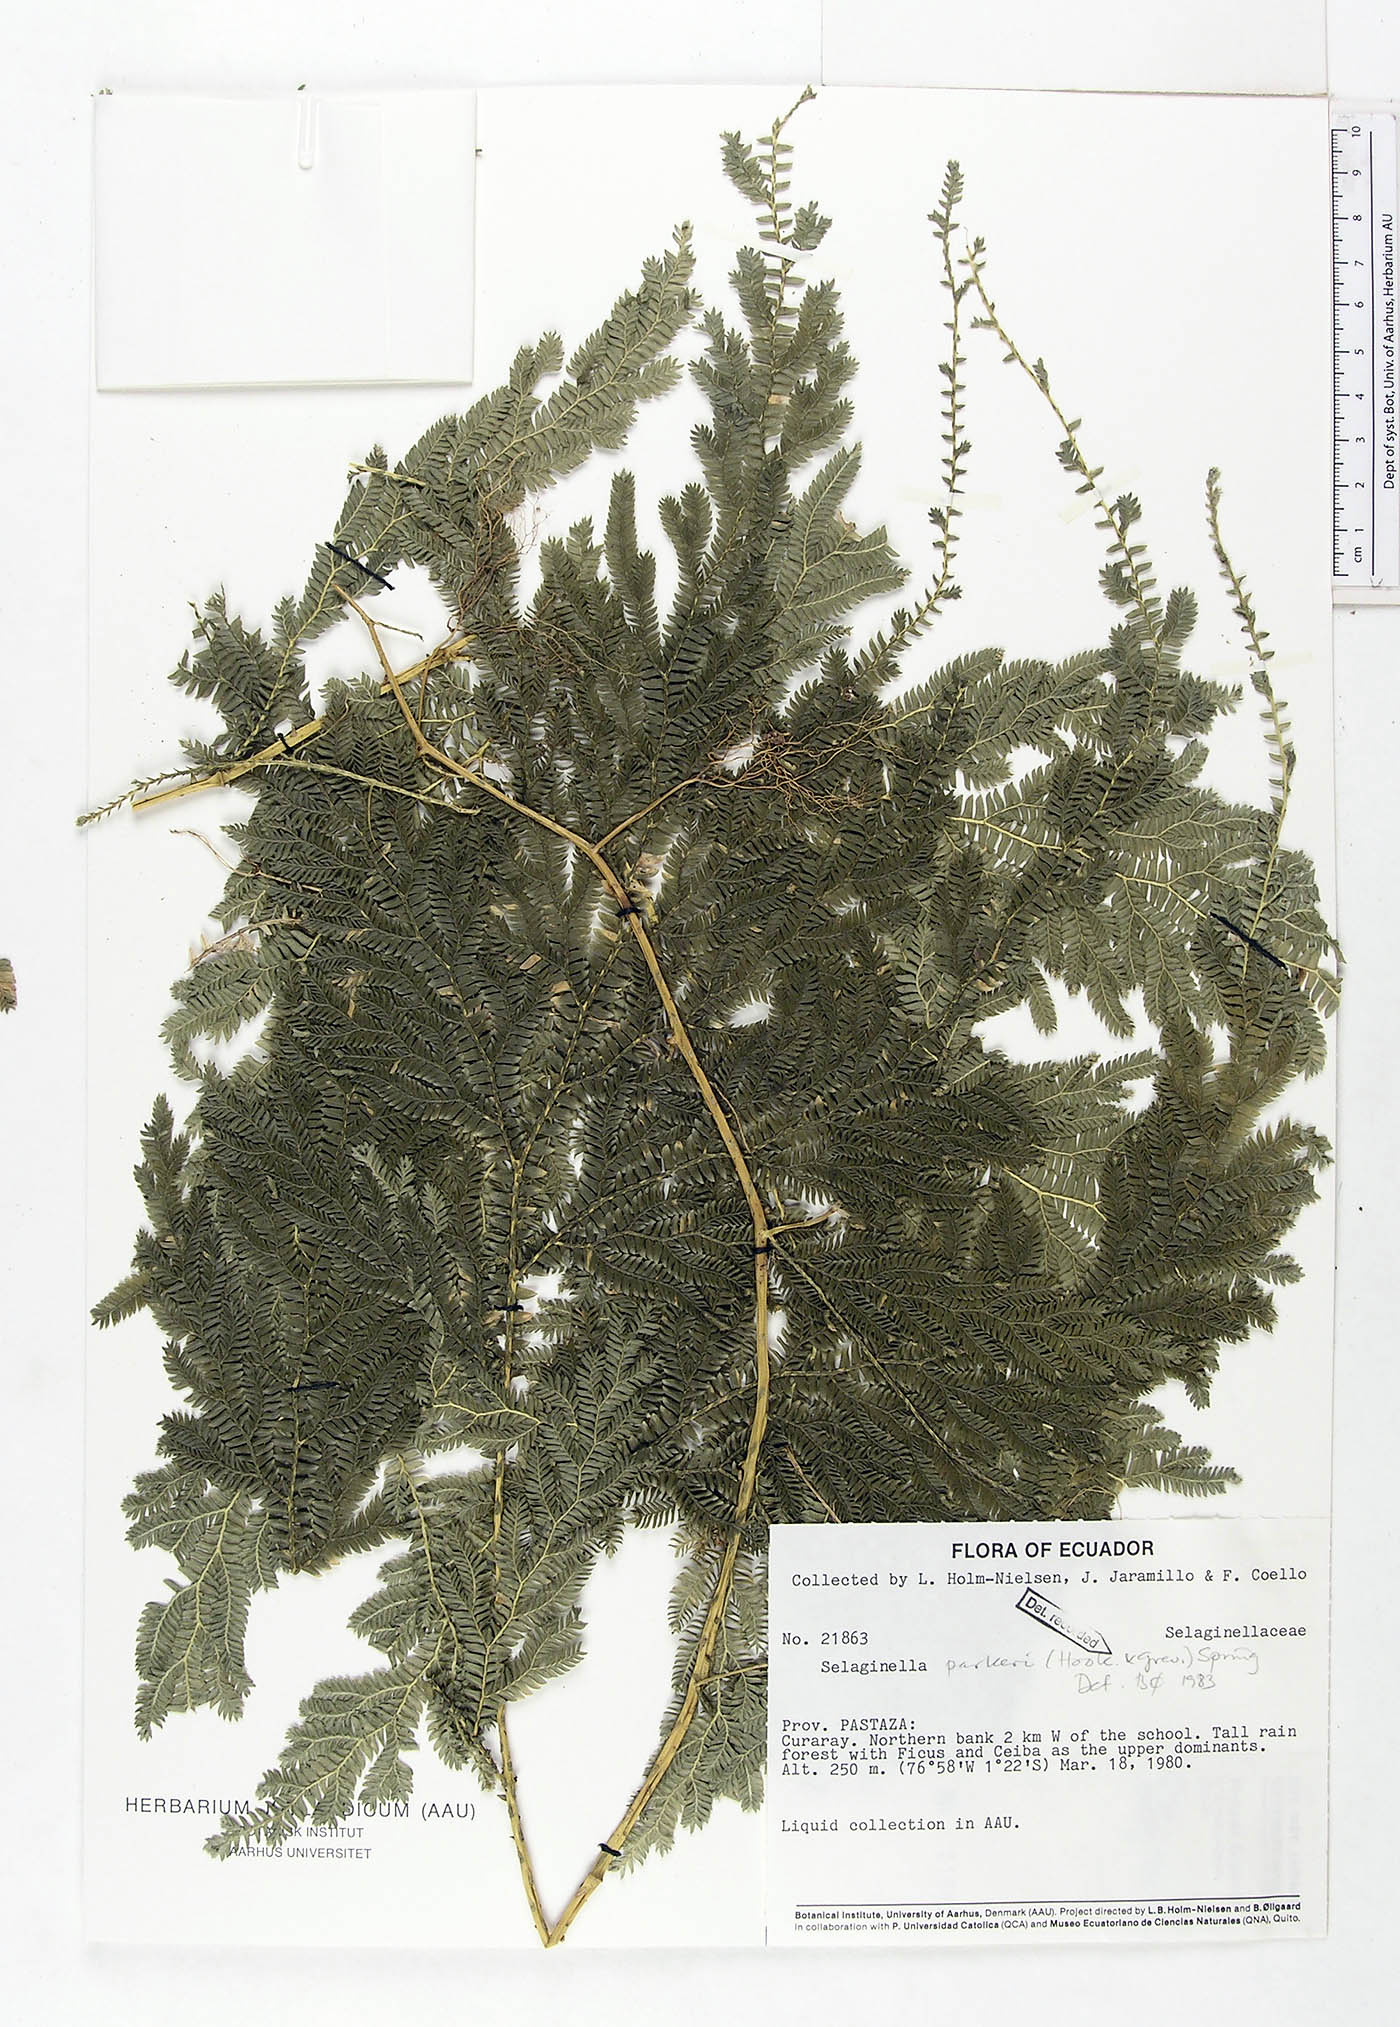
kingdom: Plantae
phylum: Tracheophyta
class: Lycopodiopsida
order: Selaginellales
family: Selaginellaceae
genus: Selaginella
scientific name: Selaginella parkeri
